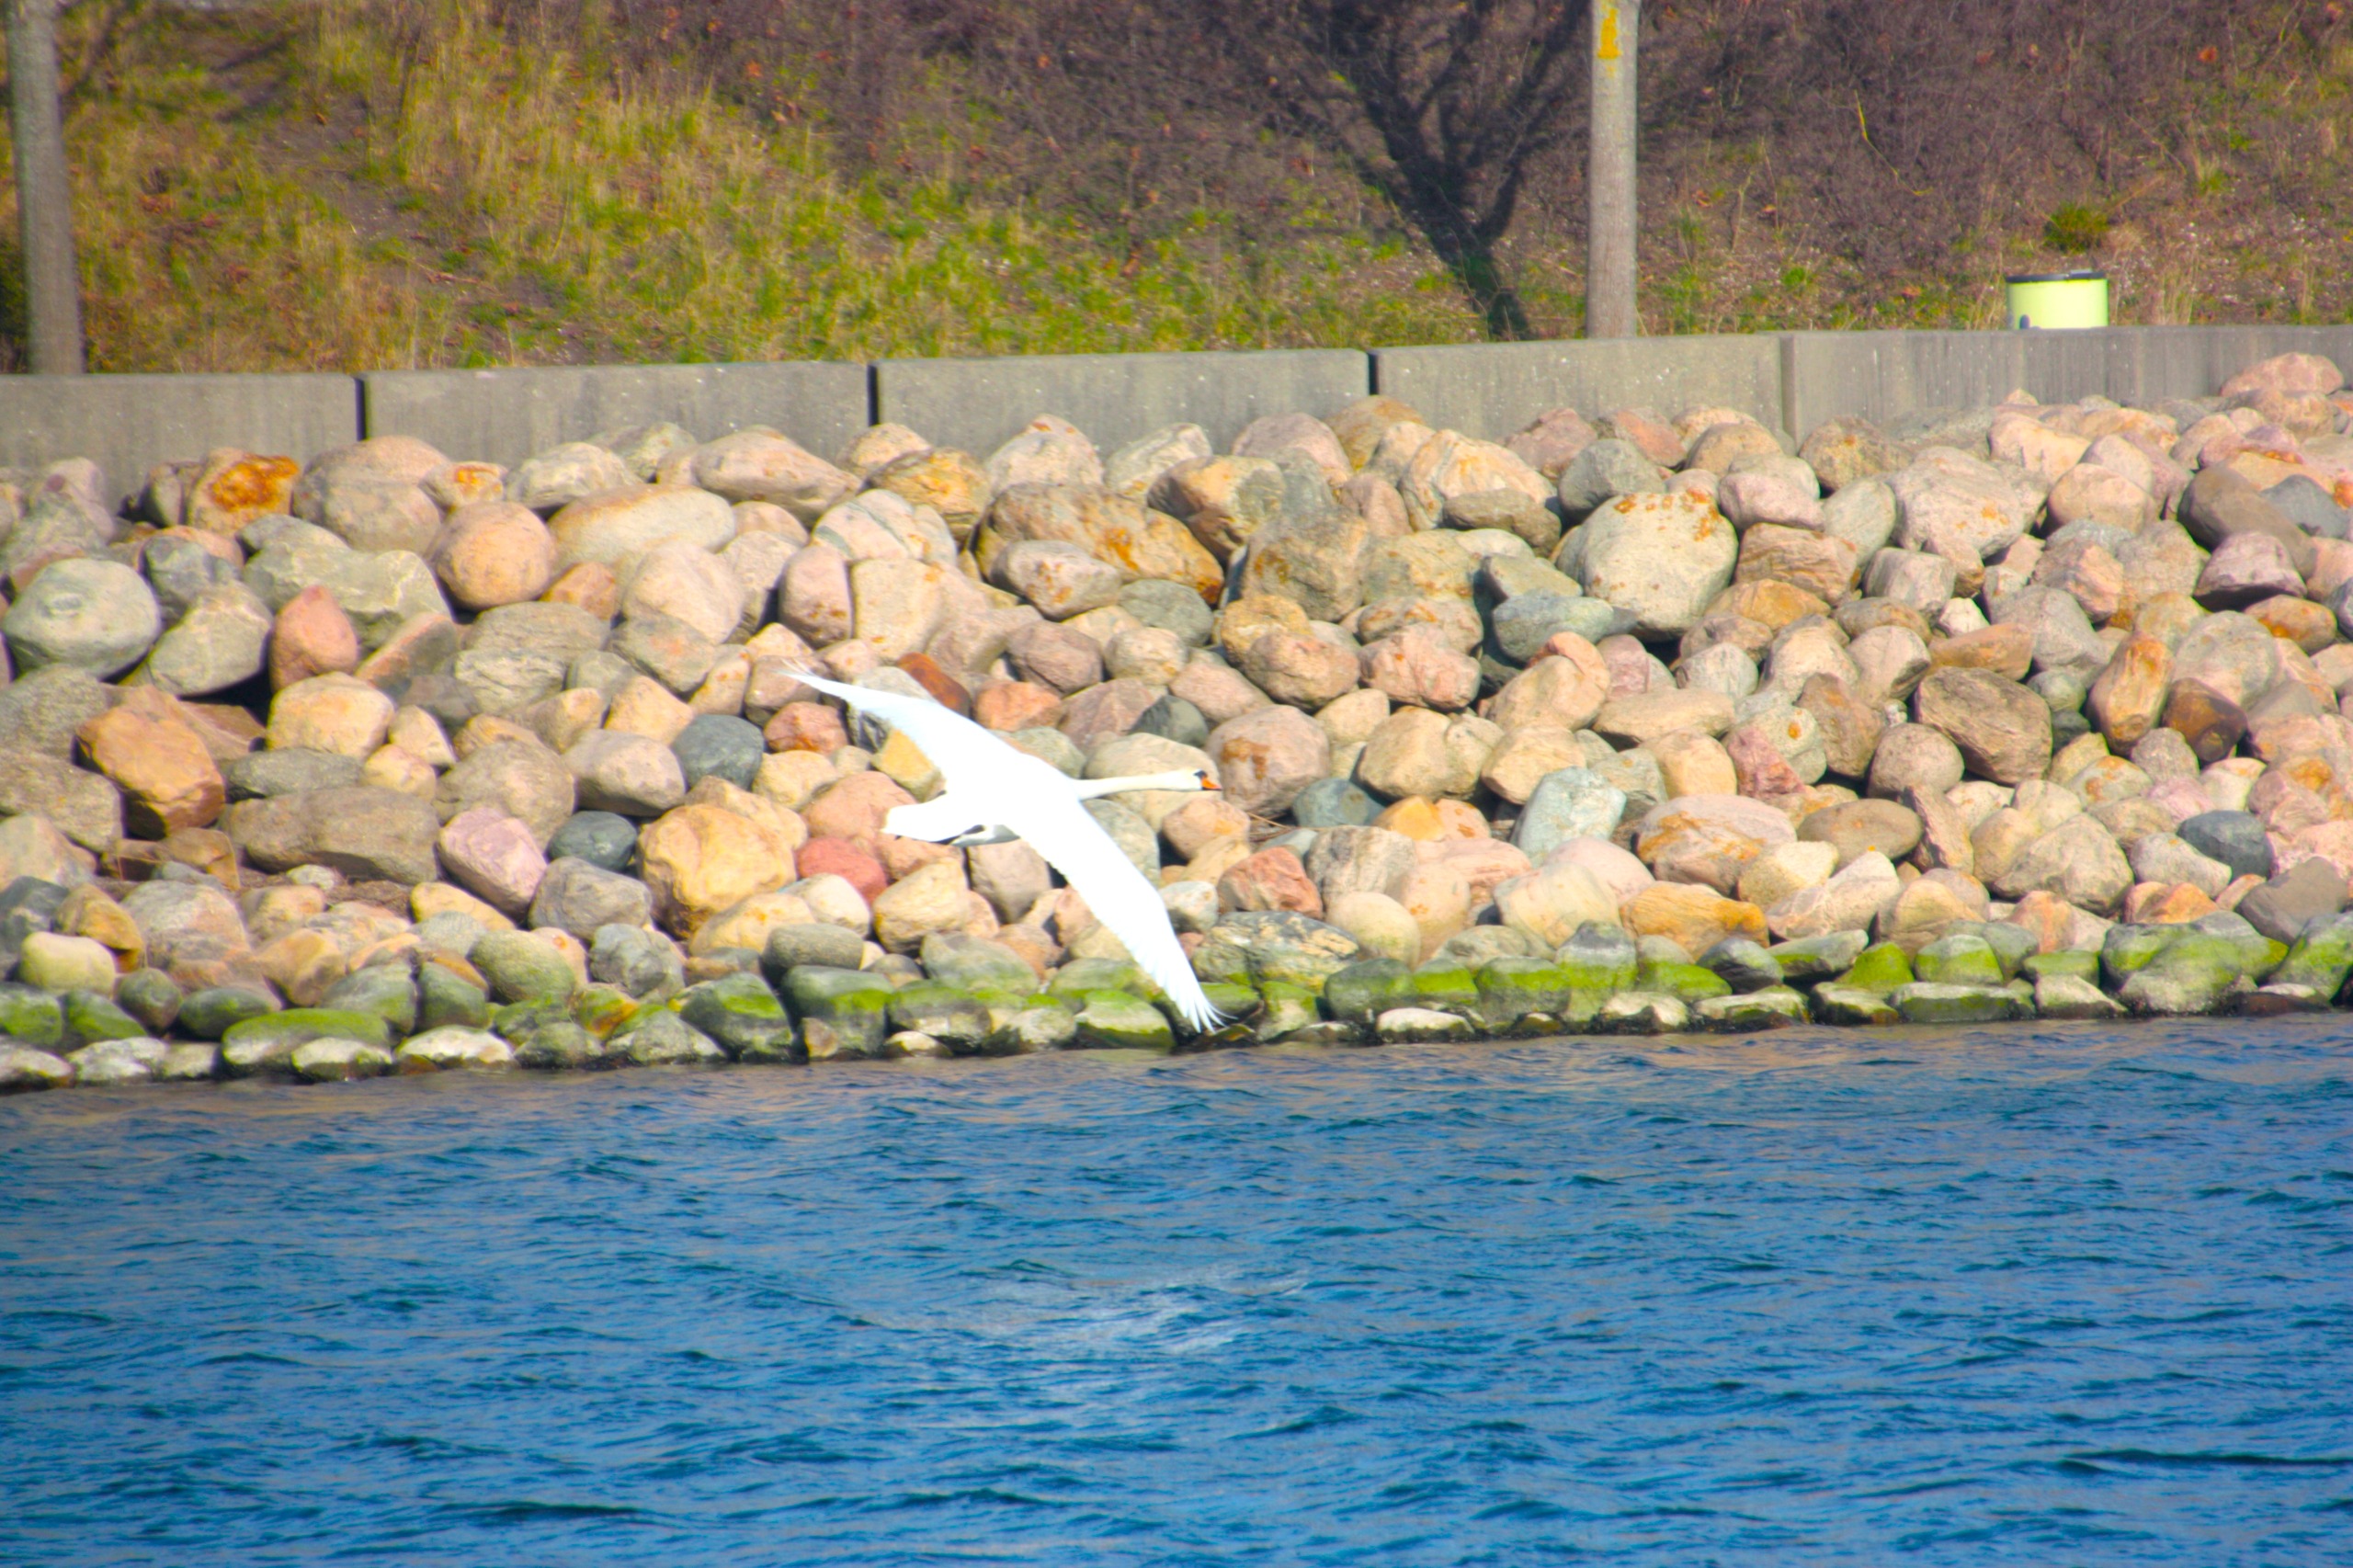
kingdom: Animalia
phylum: Chordata
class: Aves
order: Anseriformes
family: Anatidae
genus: Cygnus
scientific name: Cygnus olor
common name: Knopsvane
